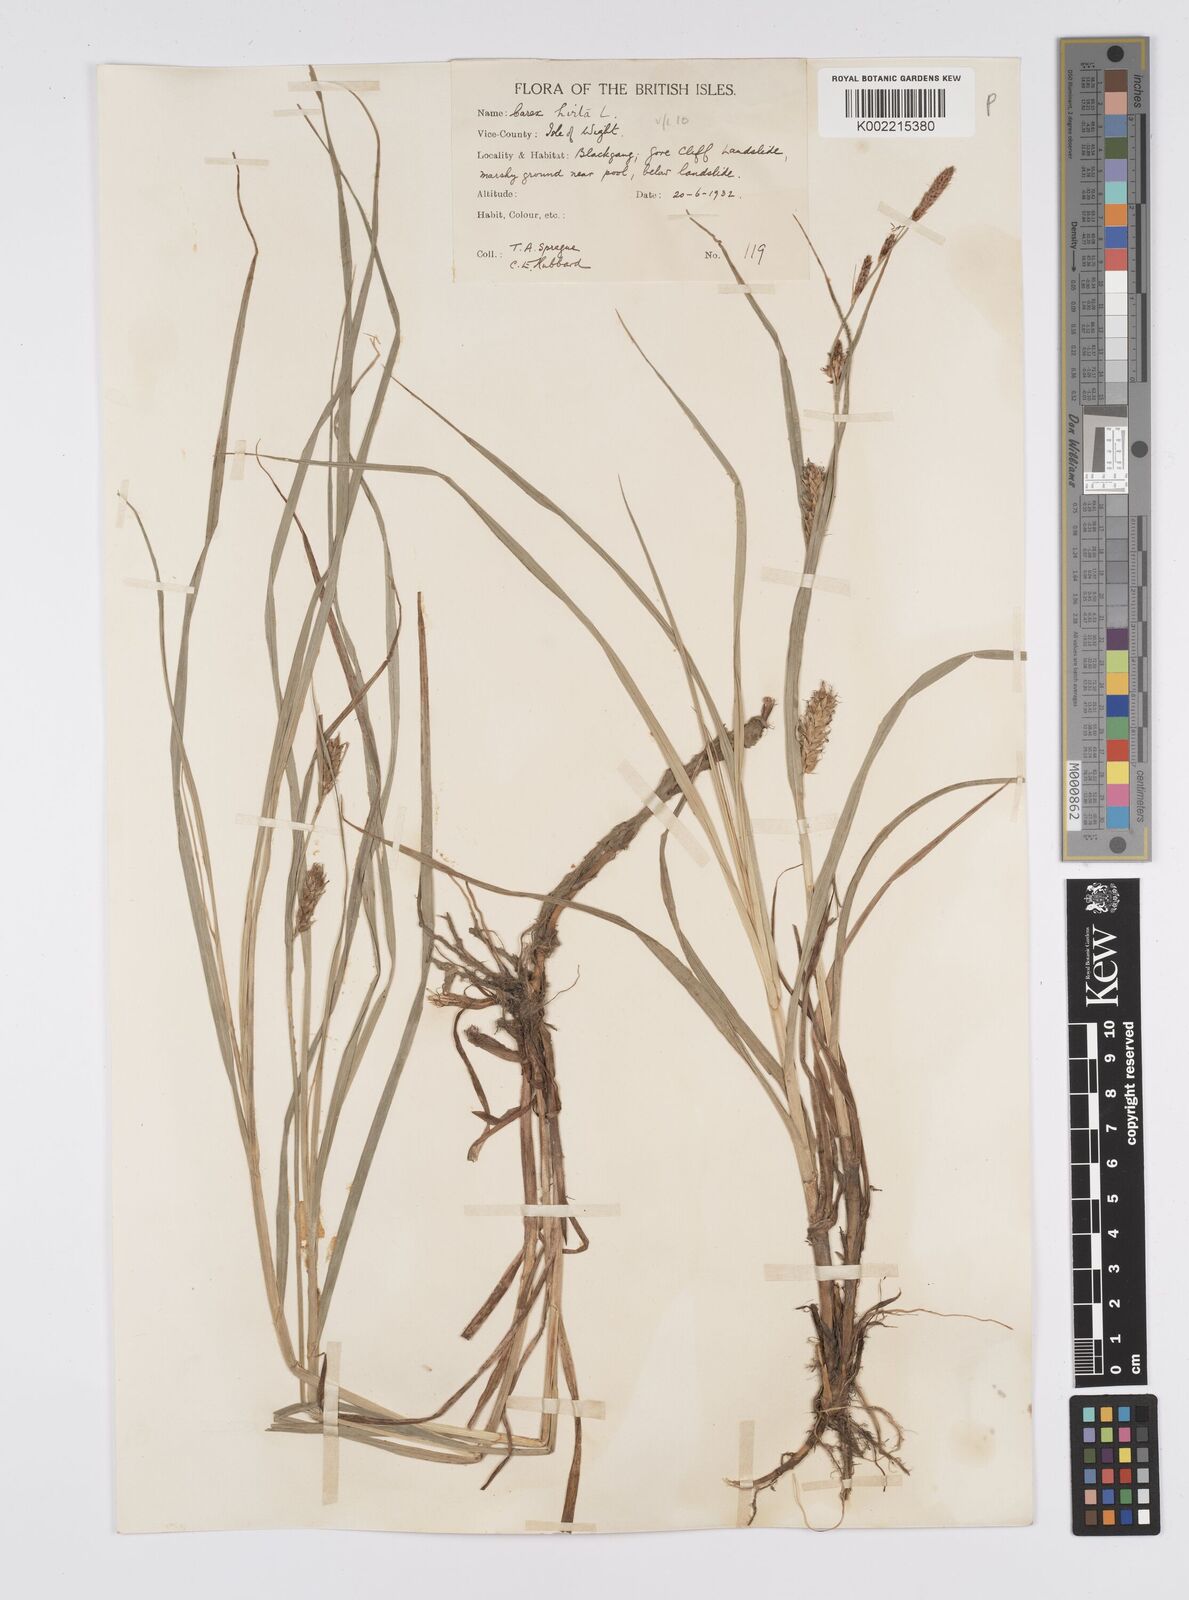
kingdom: Plantae
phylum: Tracheophyta
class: Liliopsida
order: Poales
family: Cyperaceae
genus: Carex
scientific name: Carex hirta
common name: Hairy sedge
